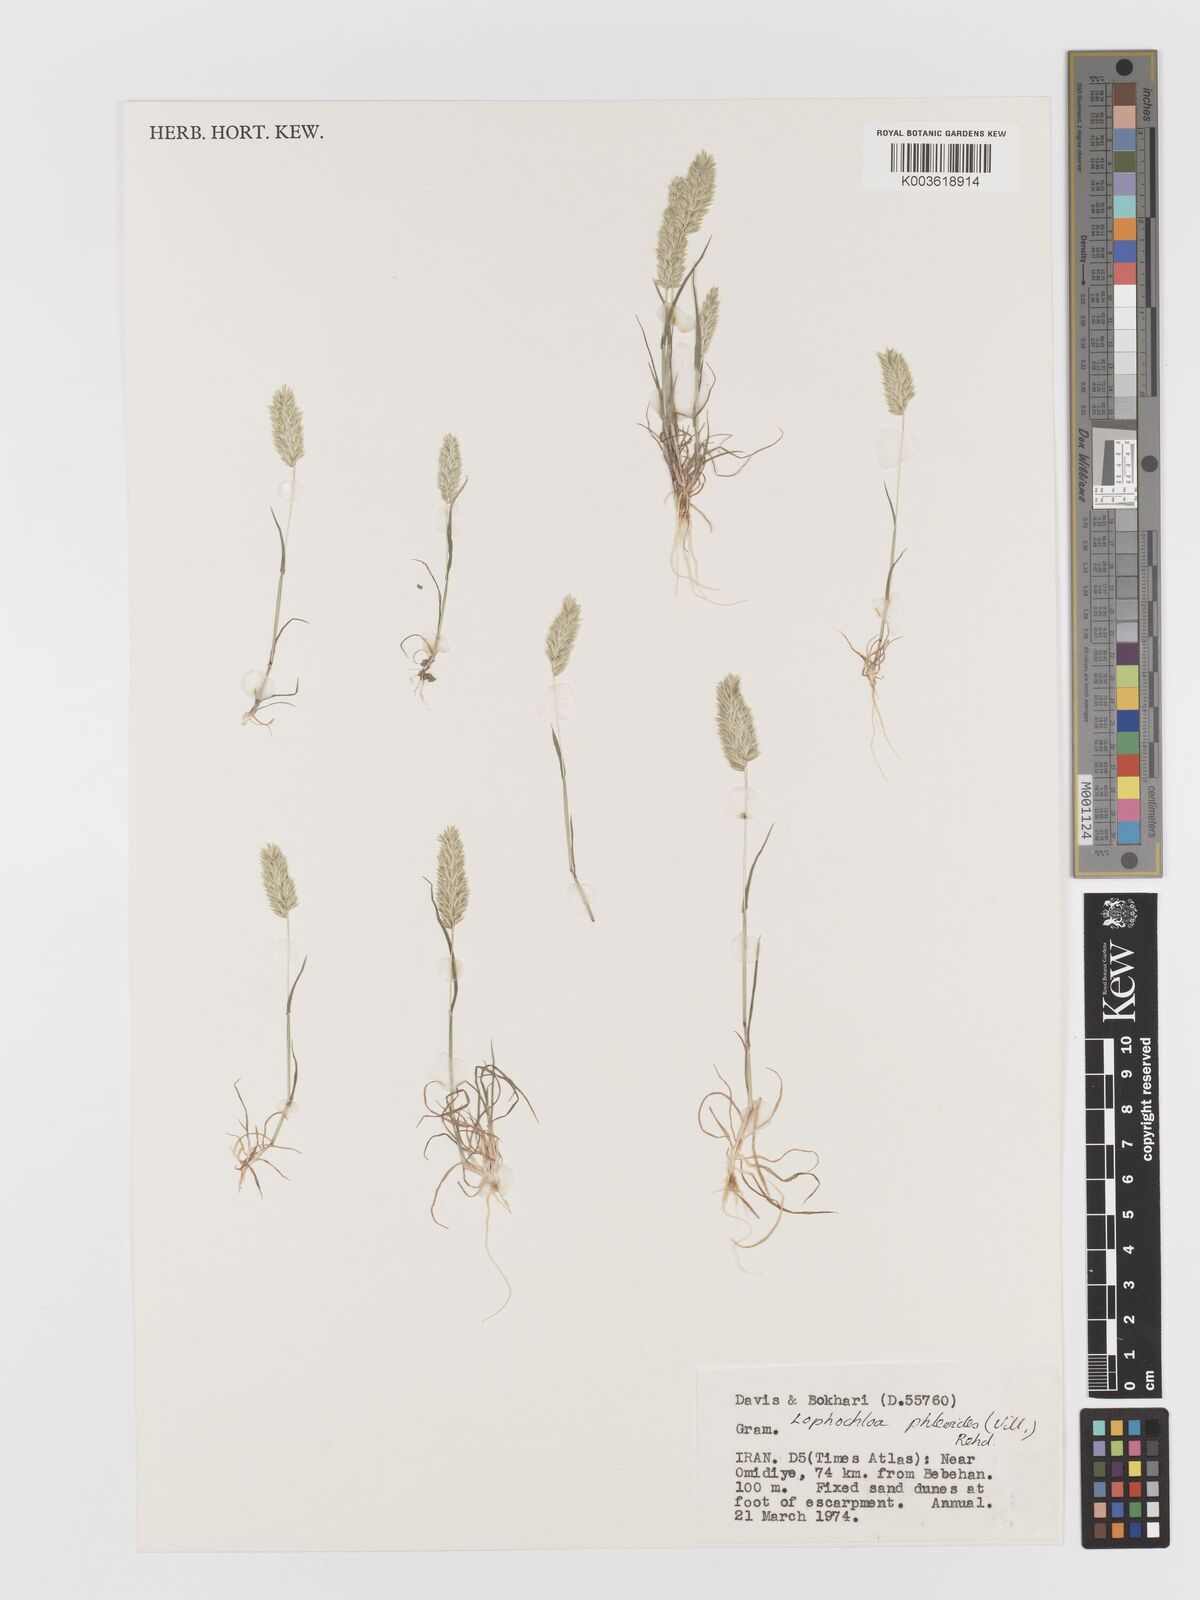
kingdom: Plantae
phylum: Tracheophyta
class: Liliopsida
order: Poales
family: Poaceae
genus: Rostraria
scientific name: Rostraria cristata
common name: Mediterranean hair-grass
